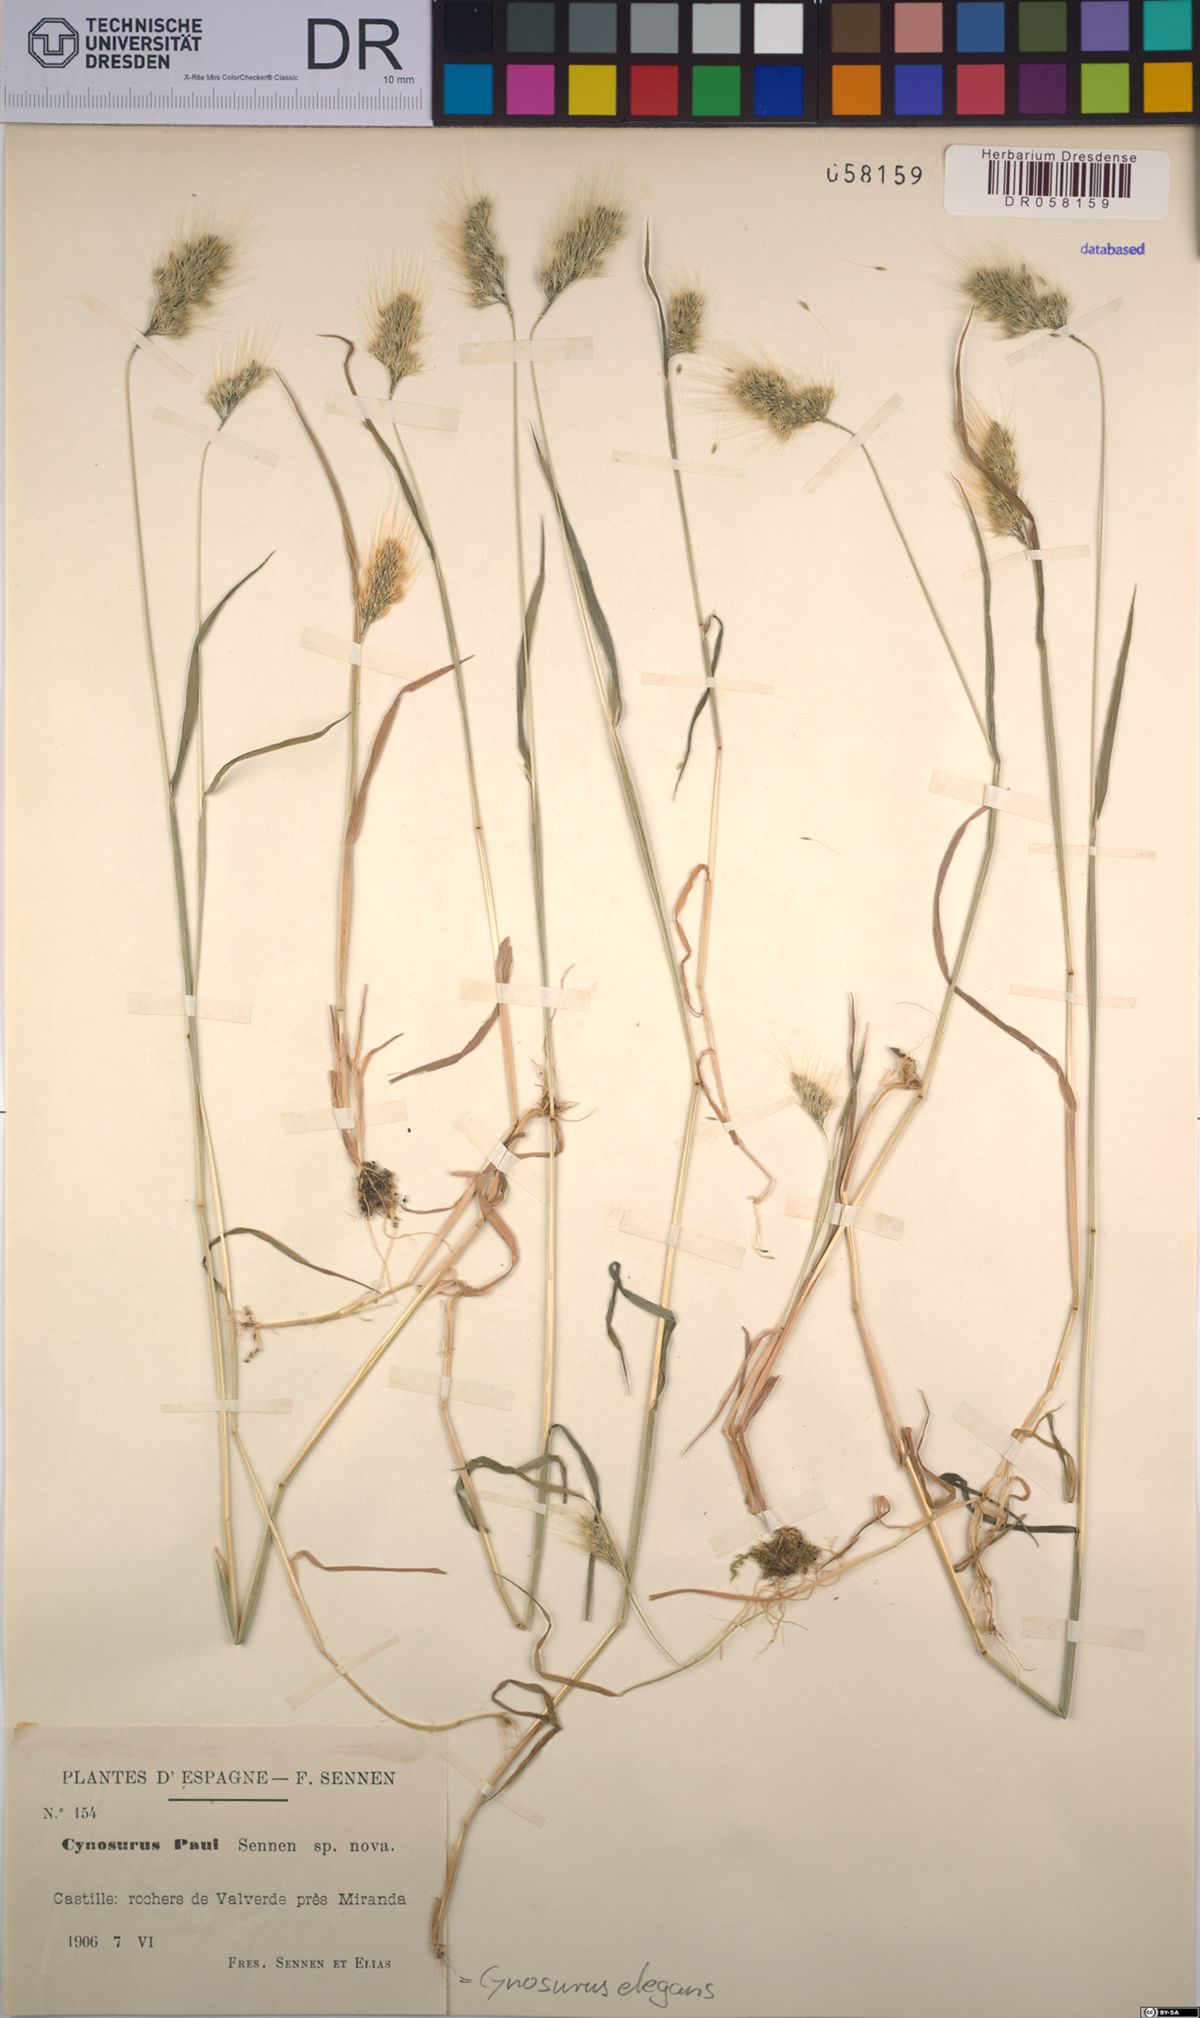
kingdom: Plantae
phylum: Tracheophyta
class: Liliopsida
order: Poales
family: Poaceae
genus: Cynosurus
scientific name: Cynosurus elegans
